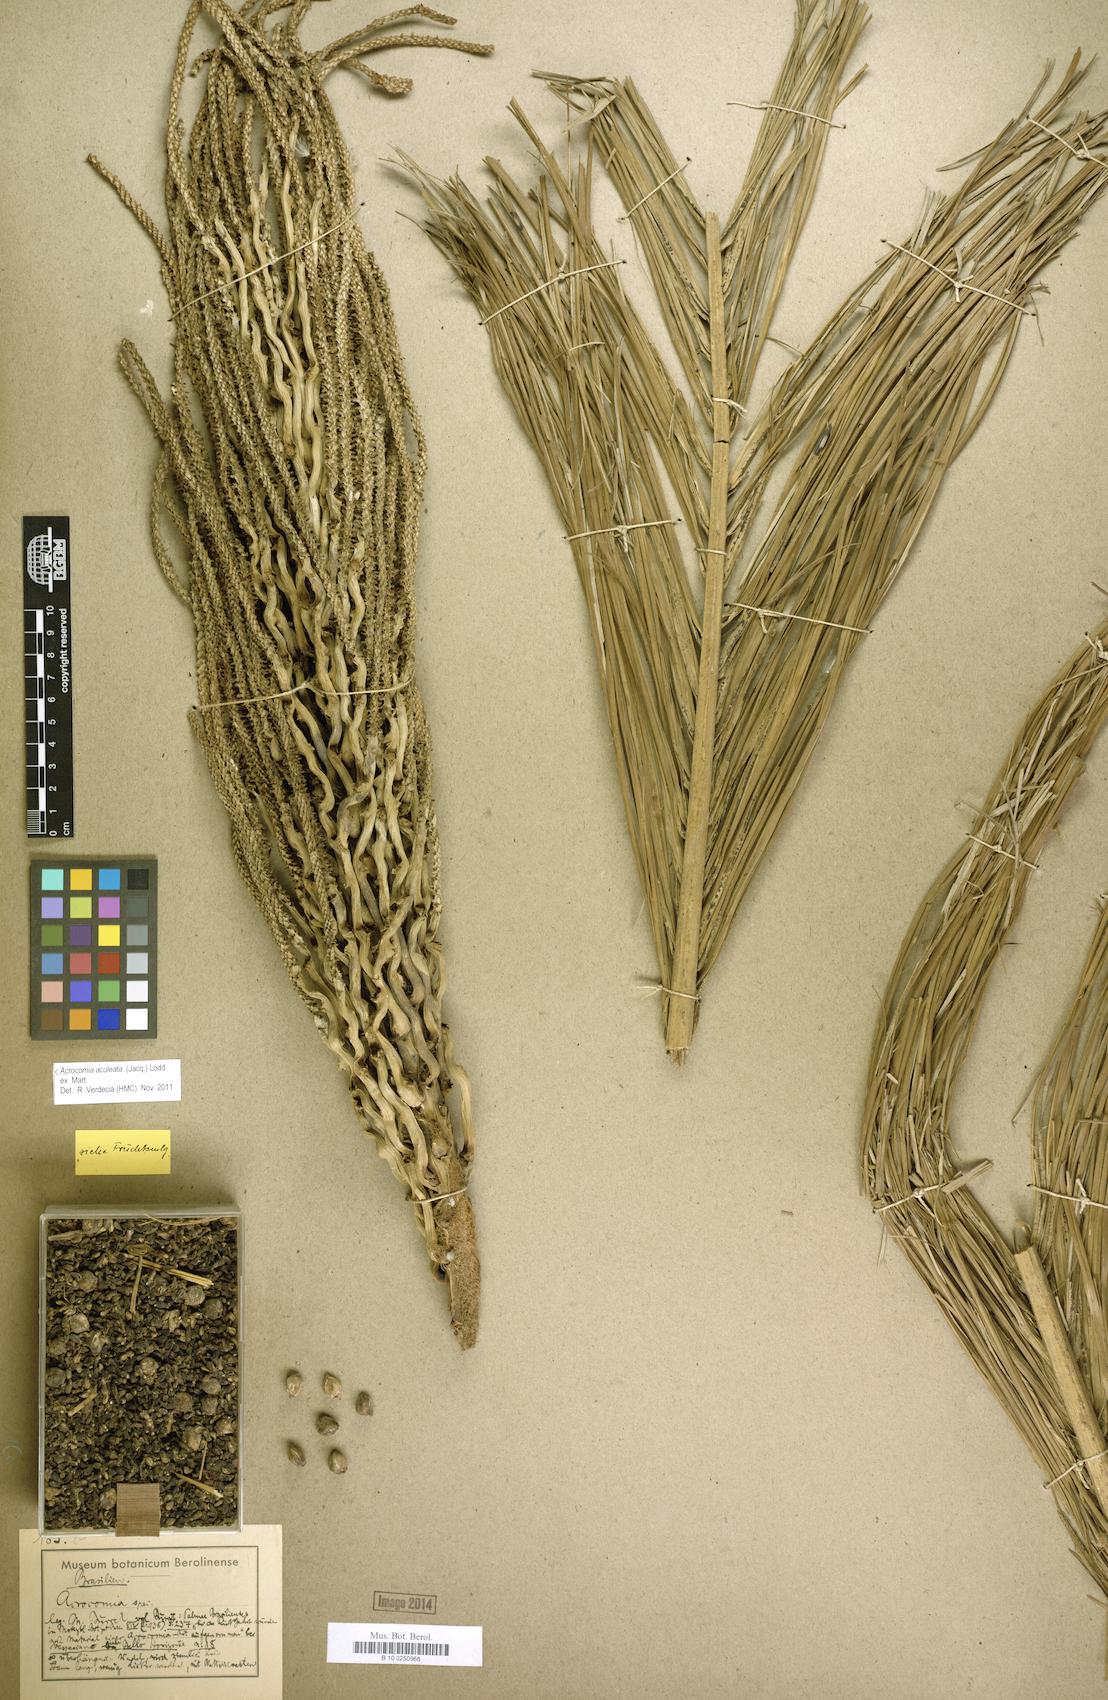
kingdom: Plantae
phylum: Tracheophyta
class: Liliopsida
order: Arecales
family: Arecaceae
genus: Acrocomia
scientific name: Acrocomia aculeata
